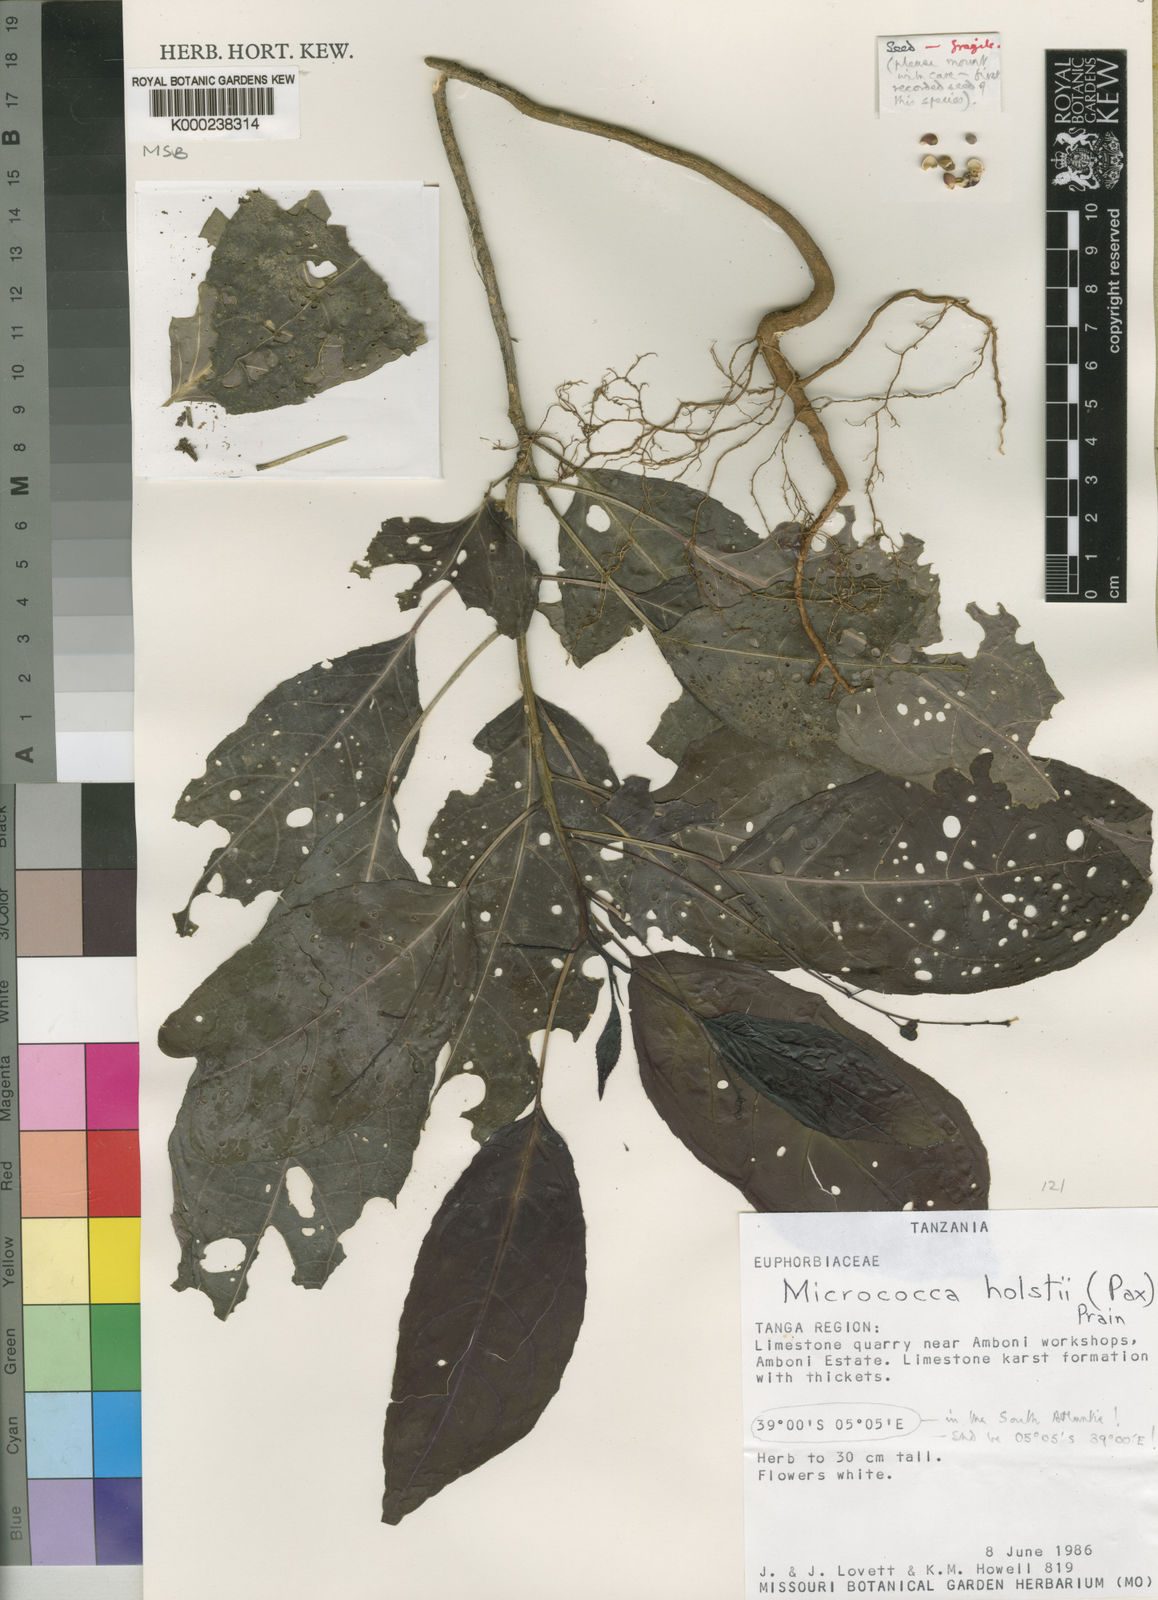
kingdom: Plantae
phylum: Tracheophyta
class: Magnoliopsida
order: Malpighiales
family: Euphorbiaceae
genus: Micrococca
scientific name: Micrococca holstii
